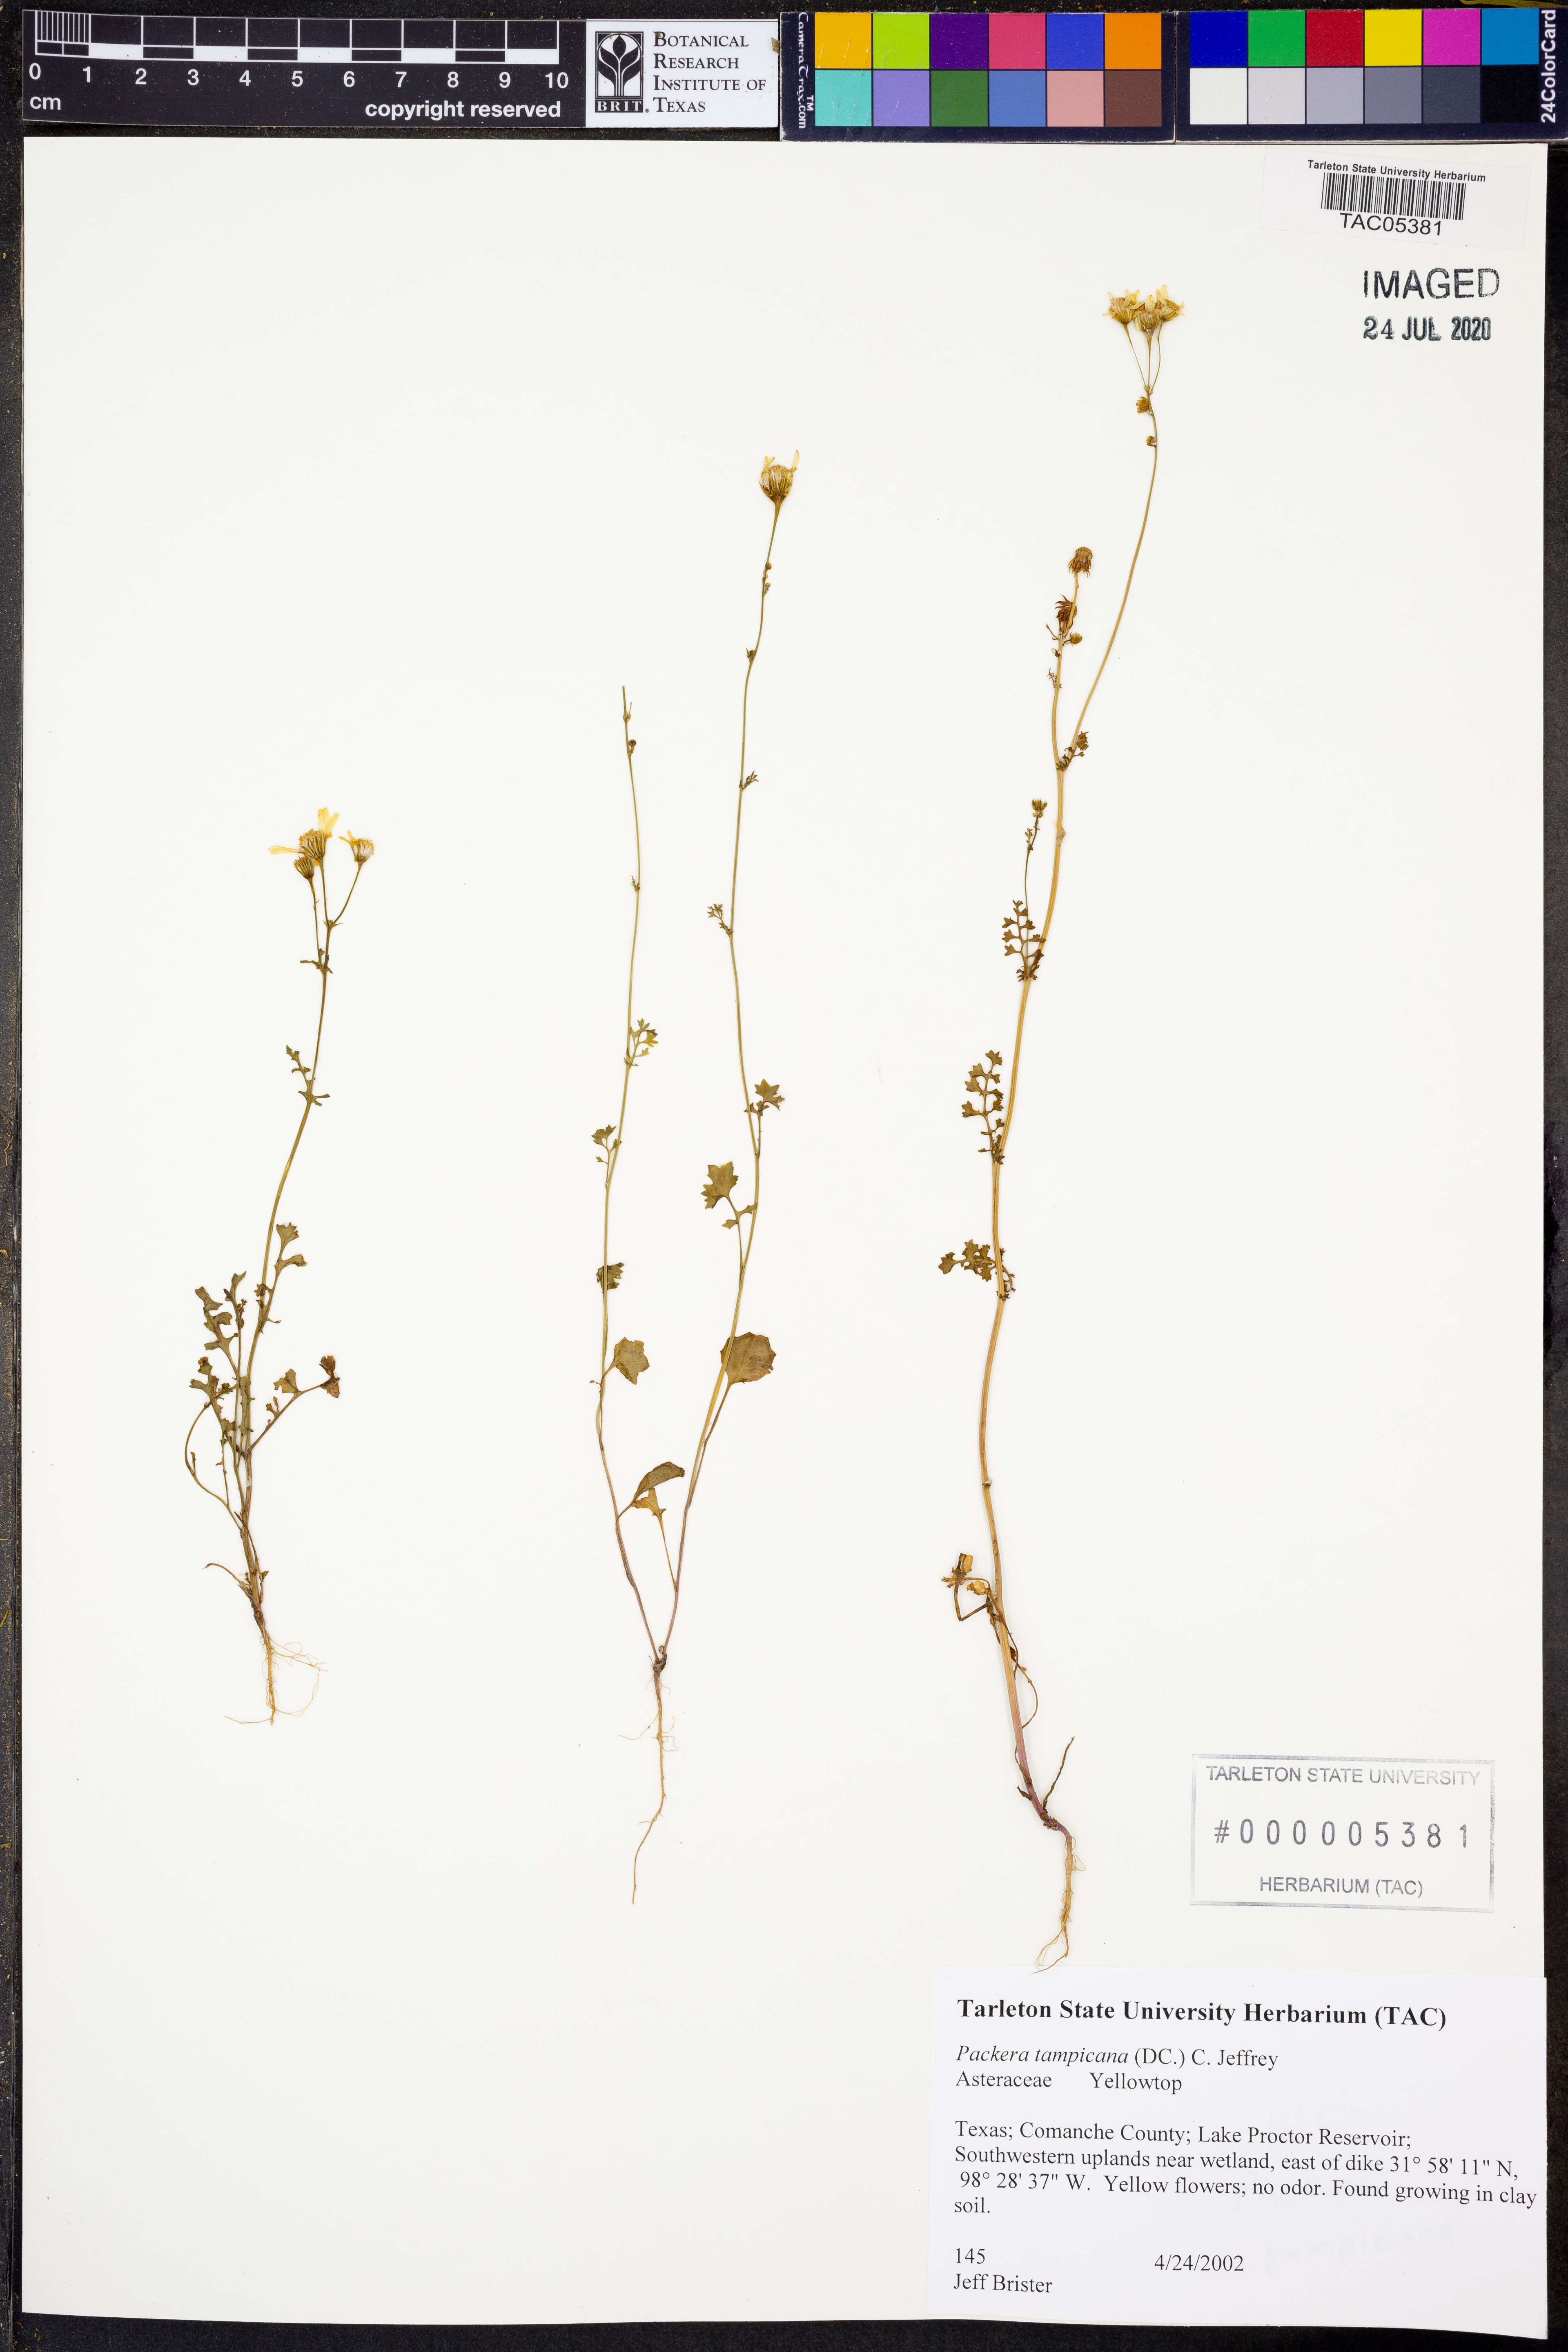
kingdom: Plantae
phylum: Tracheophyta
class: Magnoliopsida
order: Asterales
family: Asteraceae
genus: Packera
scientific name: Packera tampicana
